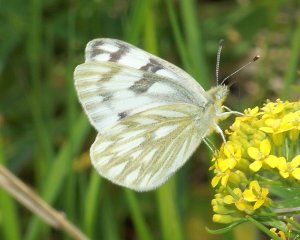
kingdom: Animalia
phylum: Arthropoda
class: Insecta
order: Lepidoptera
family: Pieridae
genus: Pontia
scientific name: Pontia occidentalis
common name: Western White
